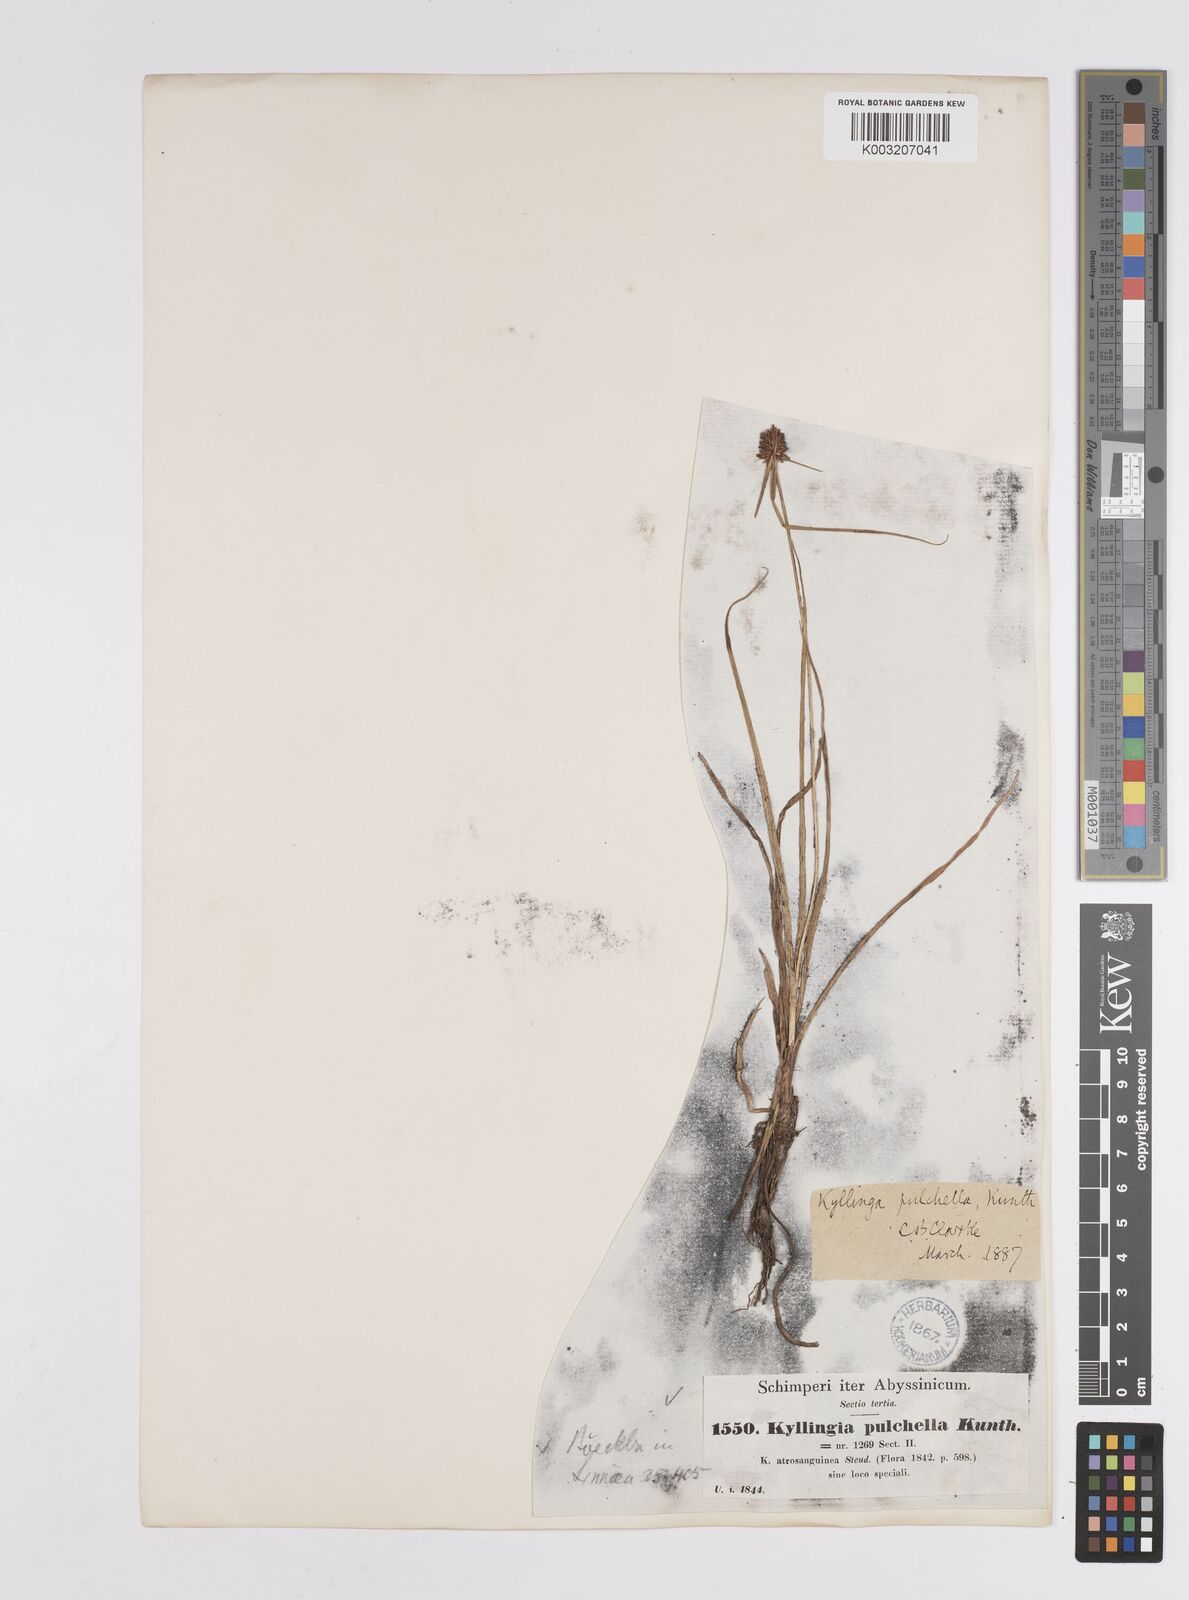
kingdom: Plantae
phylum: Tracheophyta
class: Liliopsida
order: Poales
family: Cyperaceae
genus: Cyperus
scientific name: Cyperus
